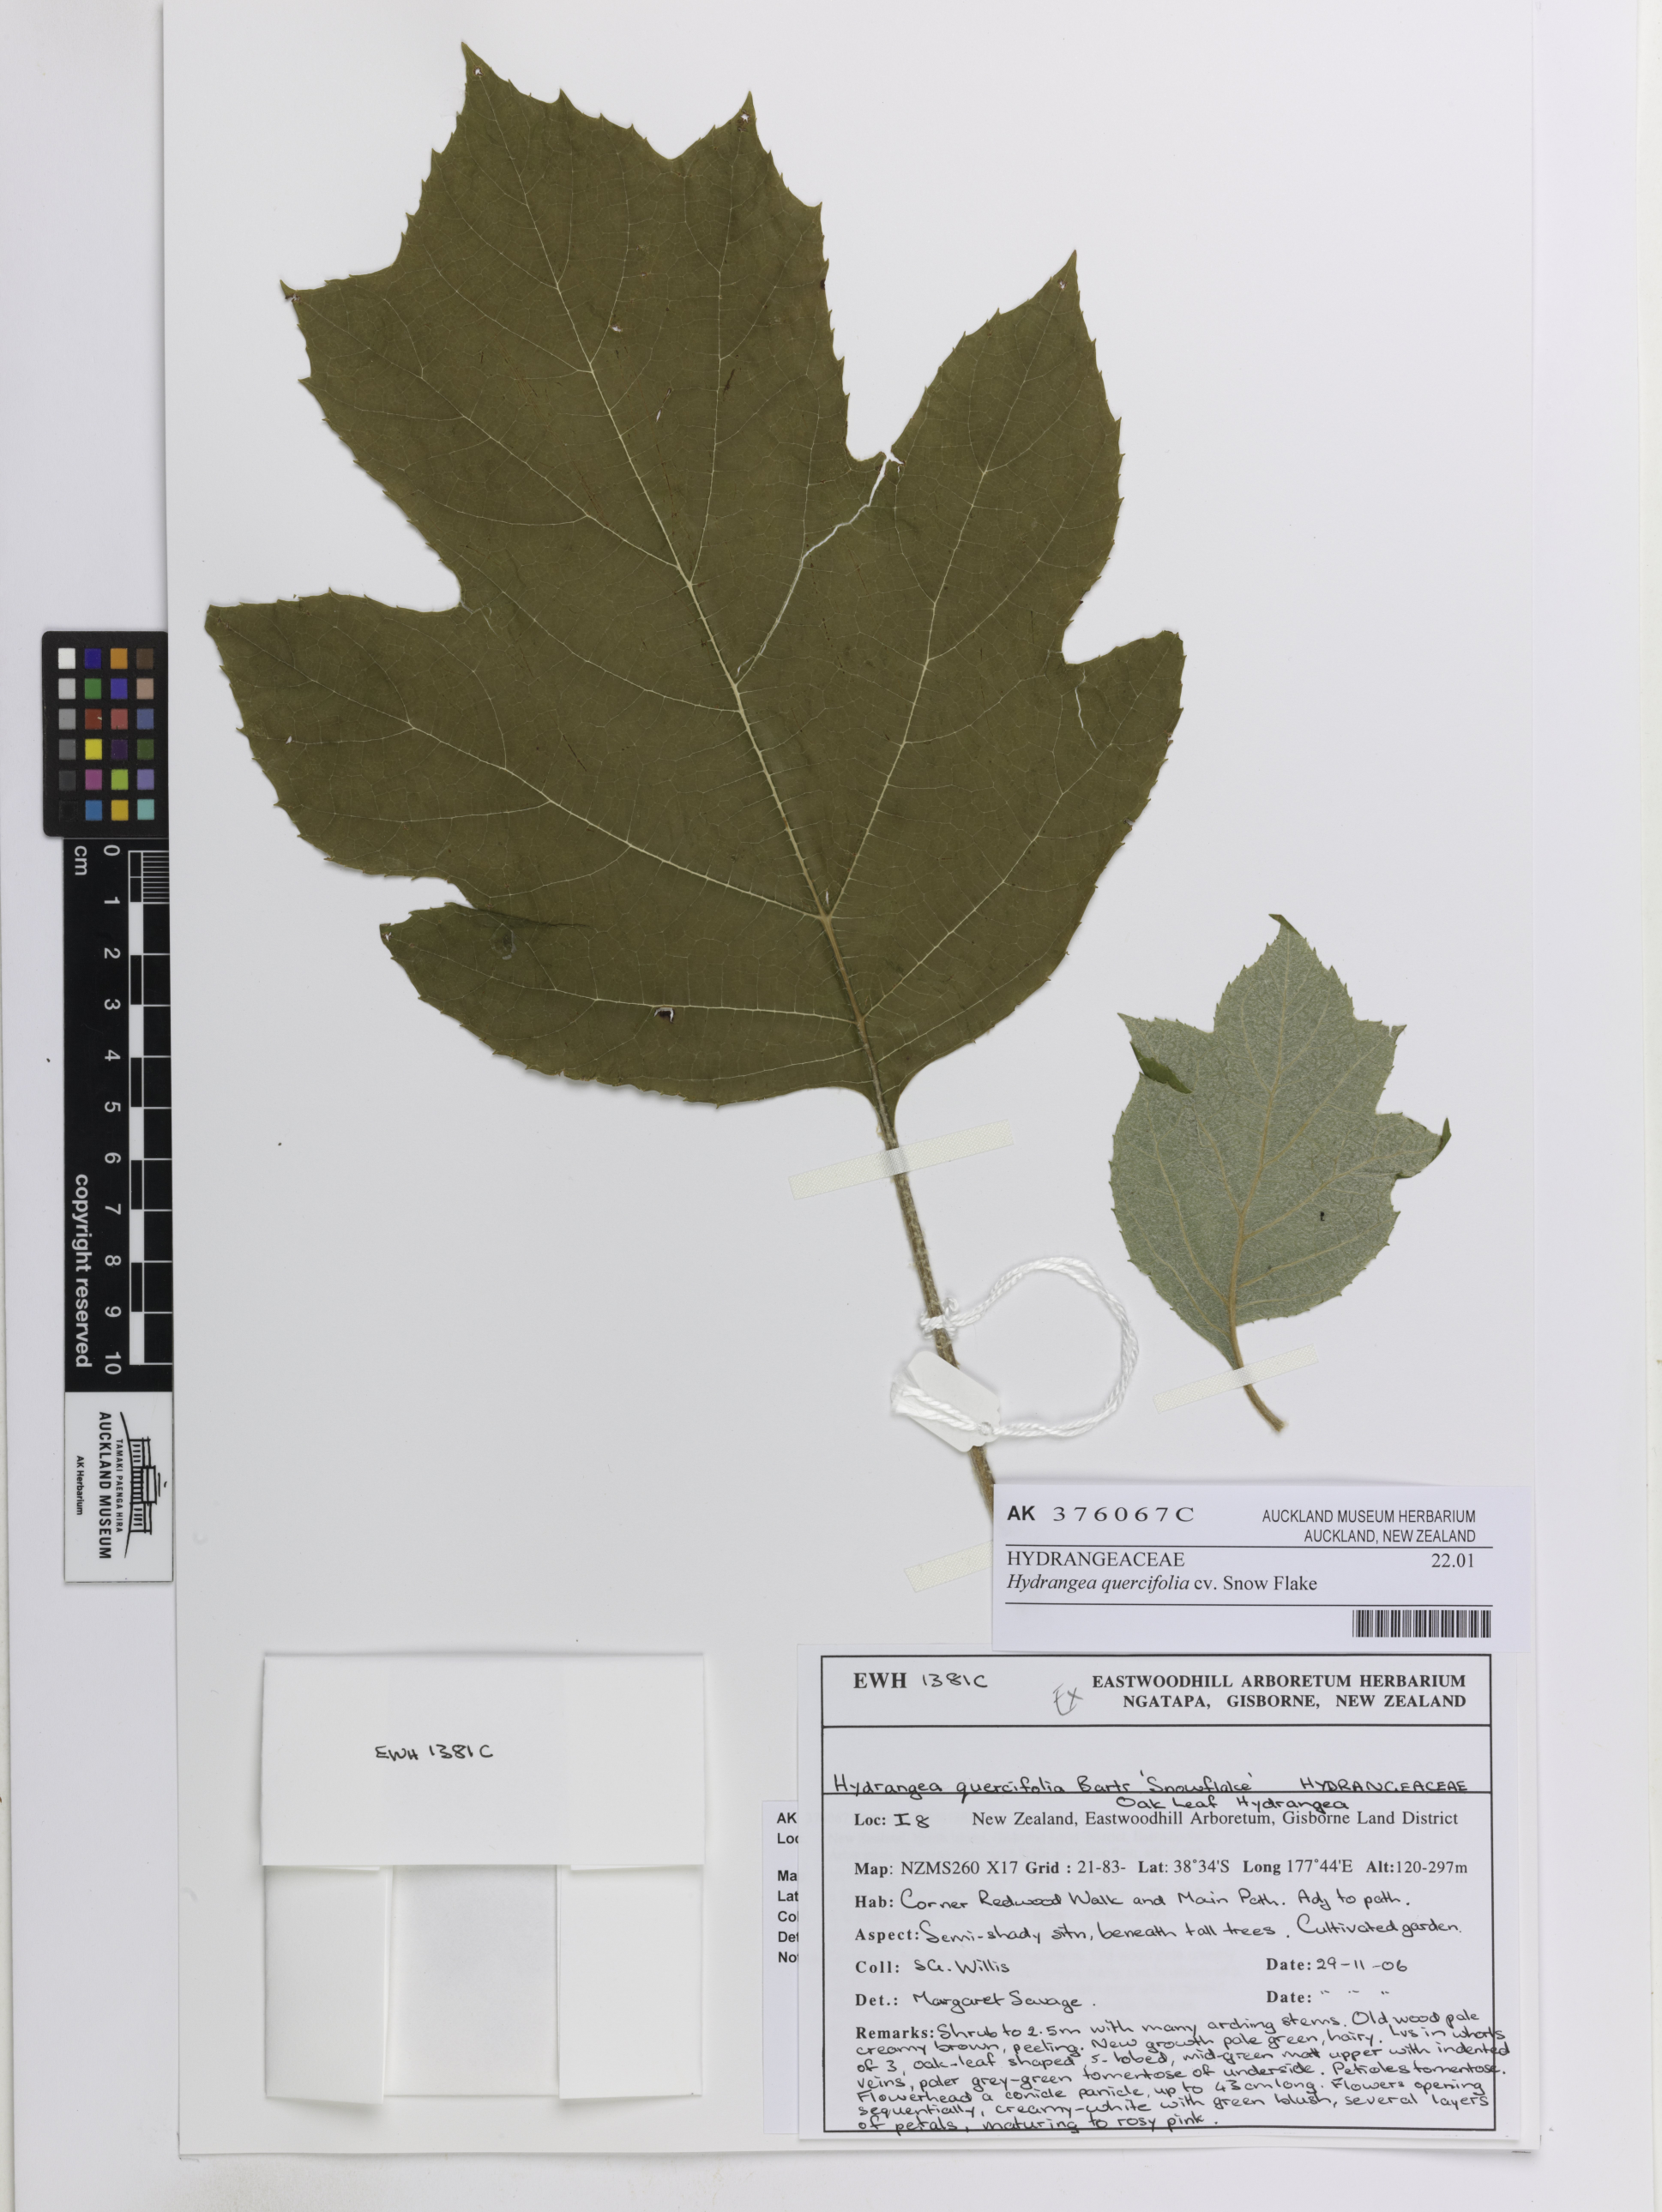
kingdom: Plantae
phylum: Tracheophyta
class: Magnoliopsida
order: Cornales
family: Hydrangeaceae
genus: Hydrangea
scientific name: Hydrangea quercifolia
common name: Oak-leaf hydrangea
